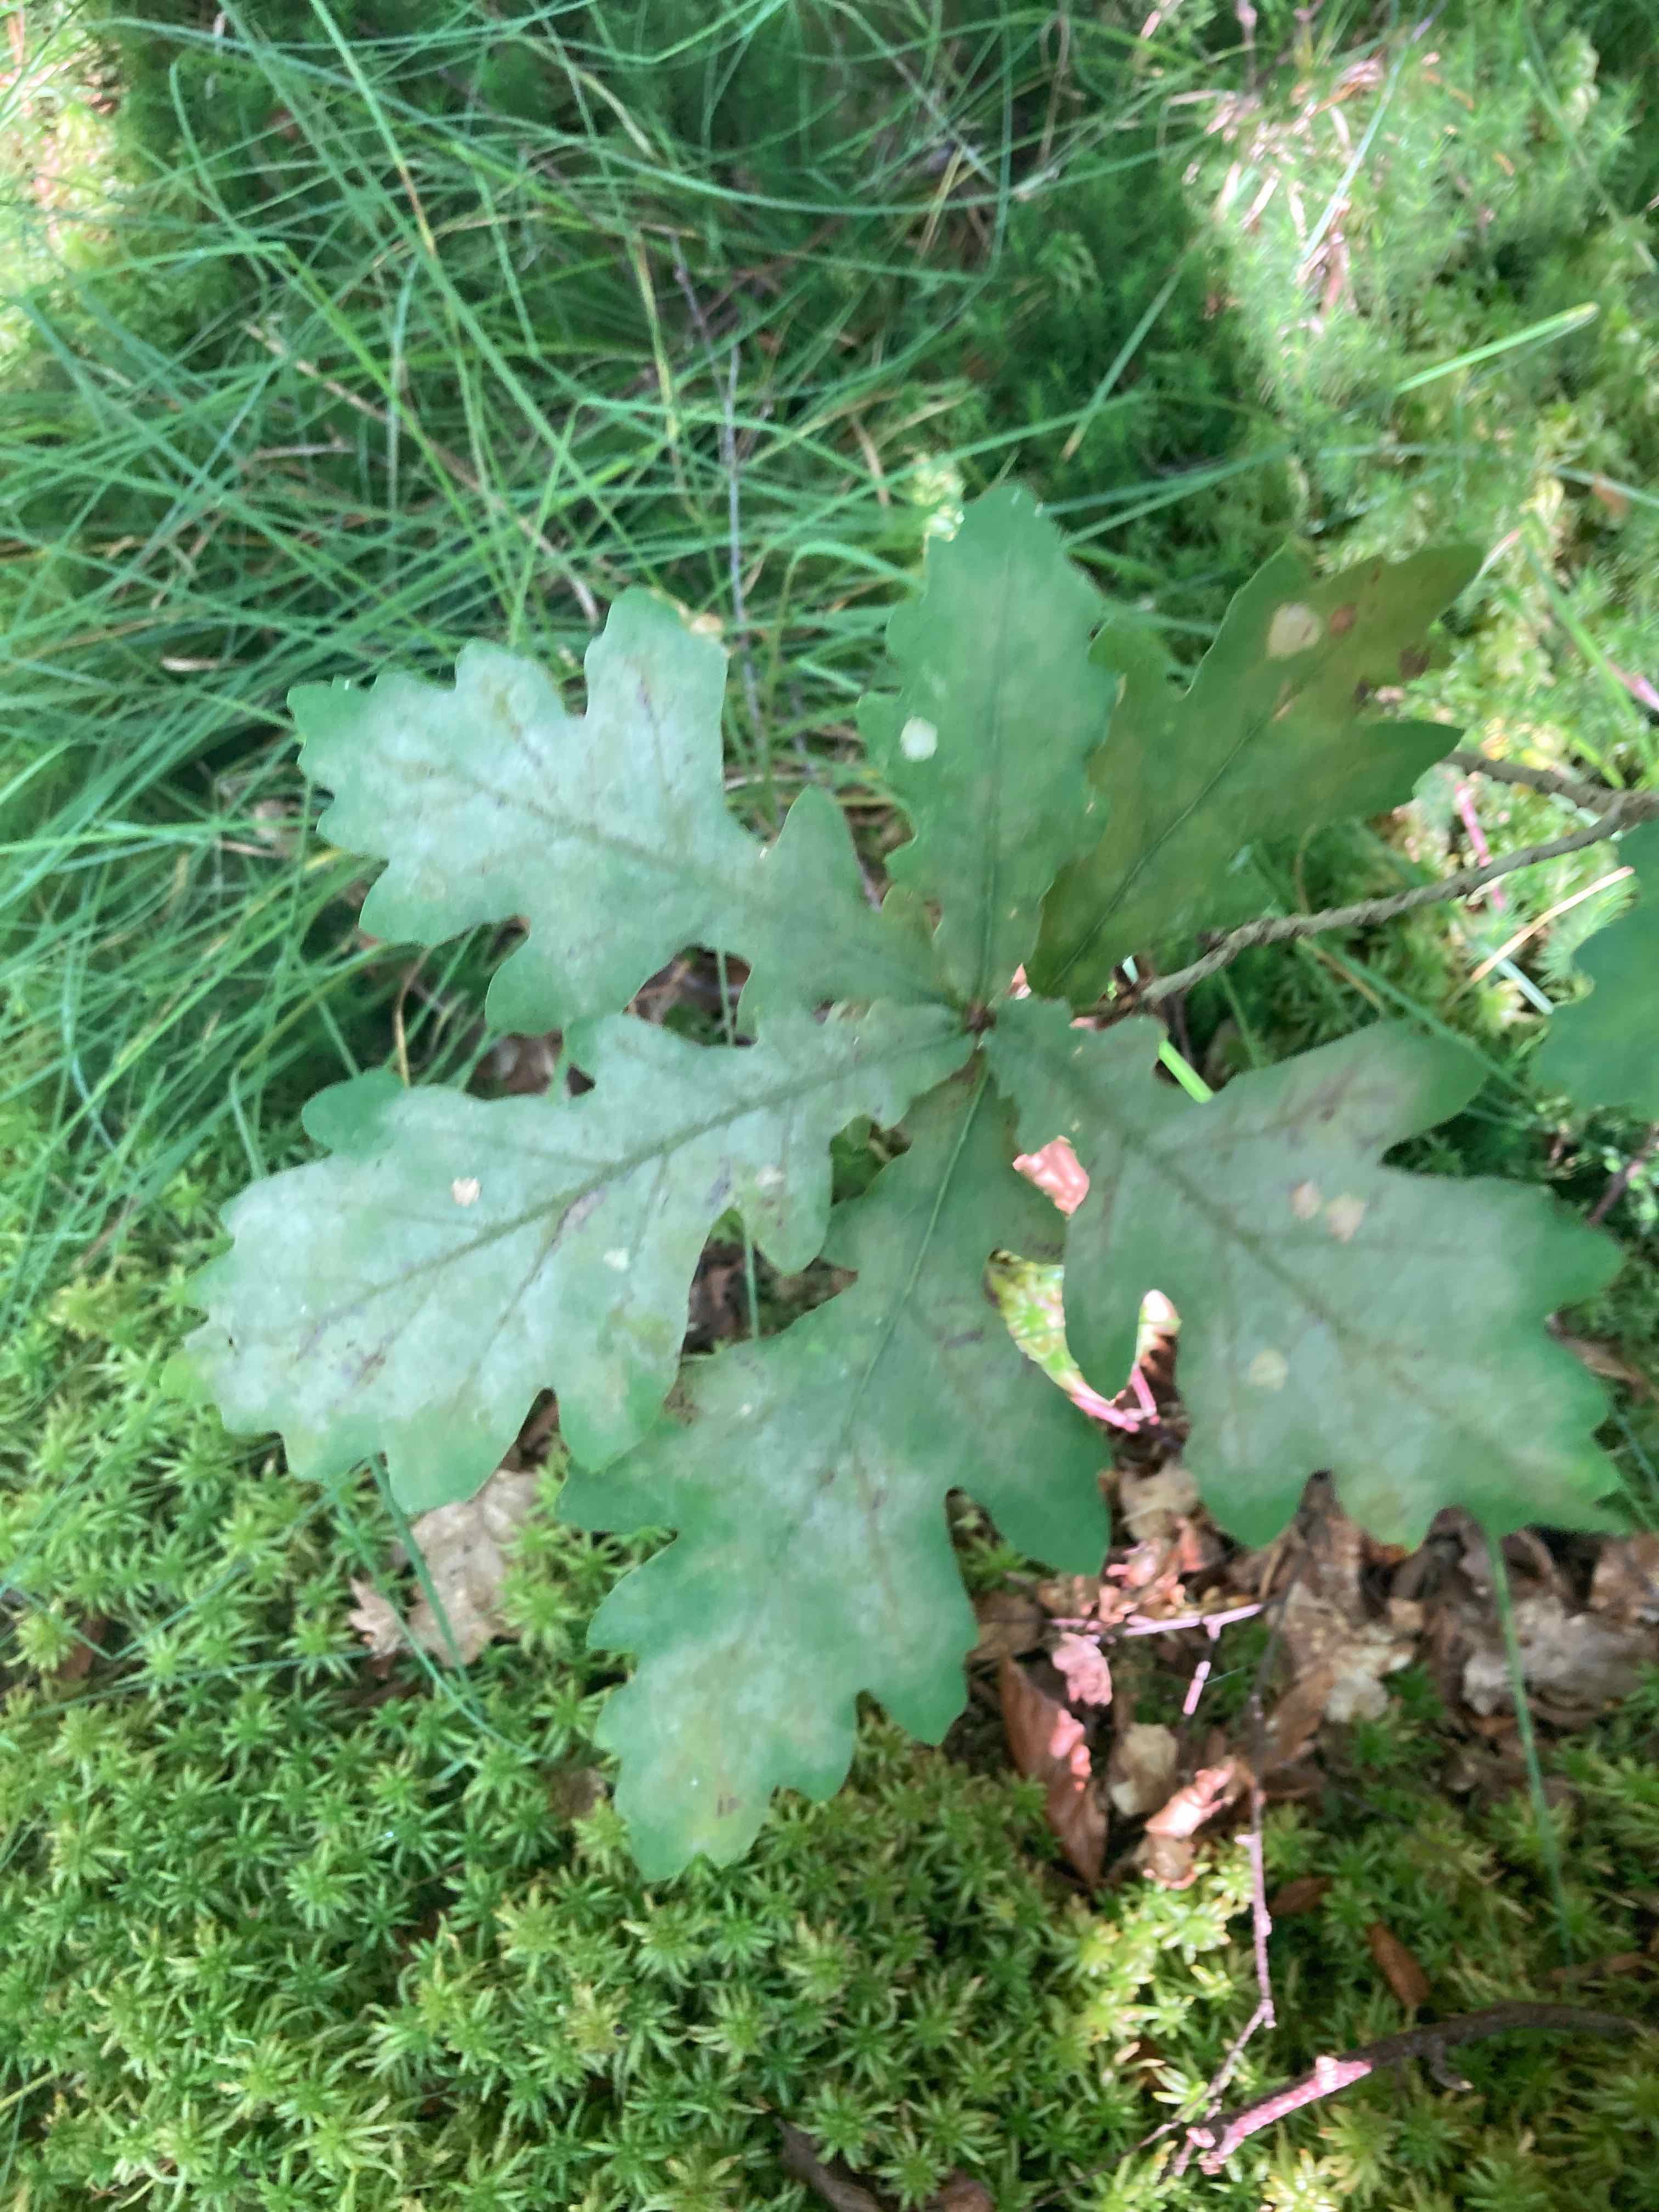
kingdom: Fungi
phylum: Ascomycota
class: Leotiomycetes
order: Helotiales
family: Erysiphaceae
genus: Erysiphe
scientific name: Erysiphe alphitoides
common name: ege-meldug
